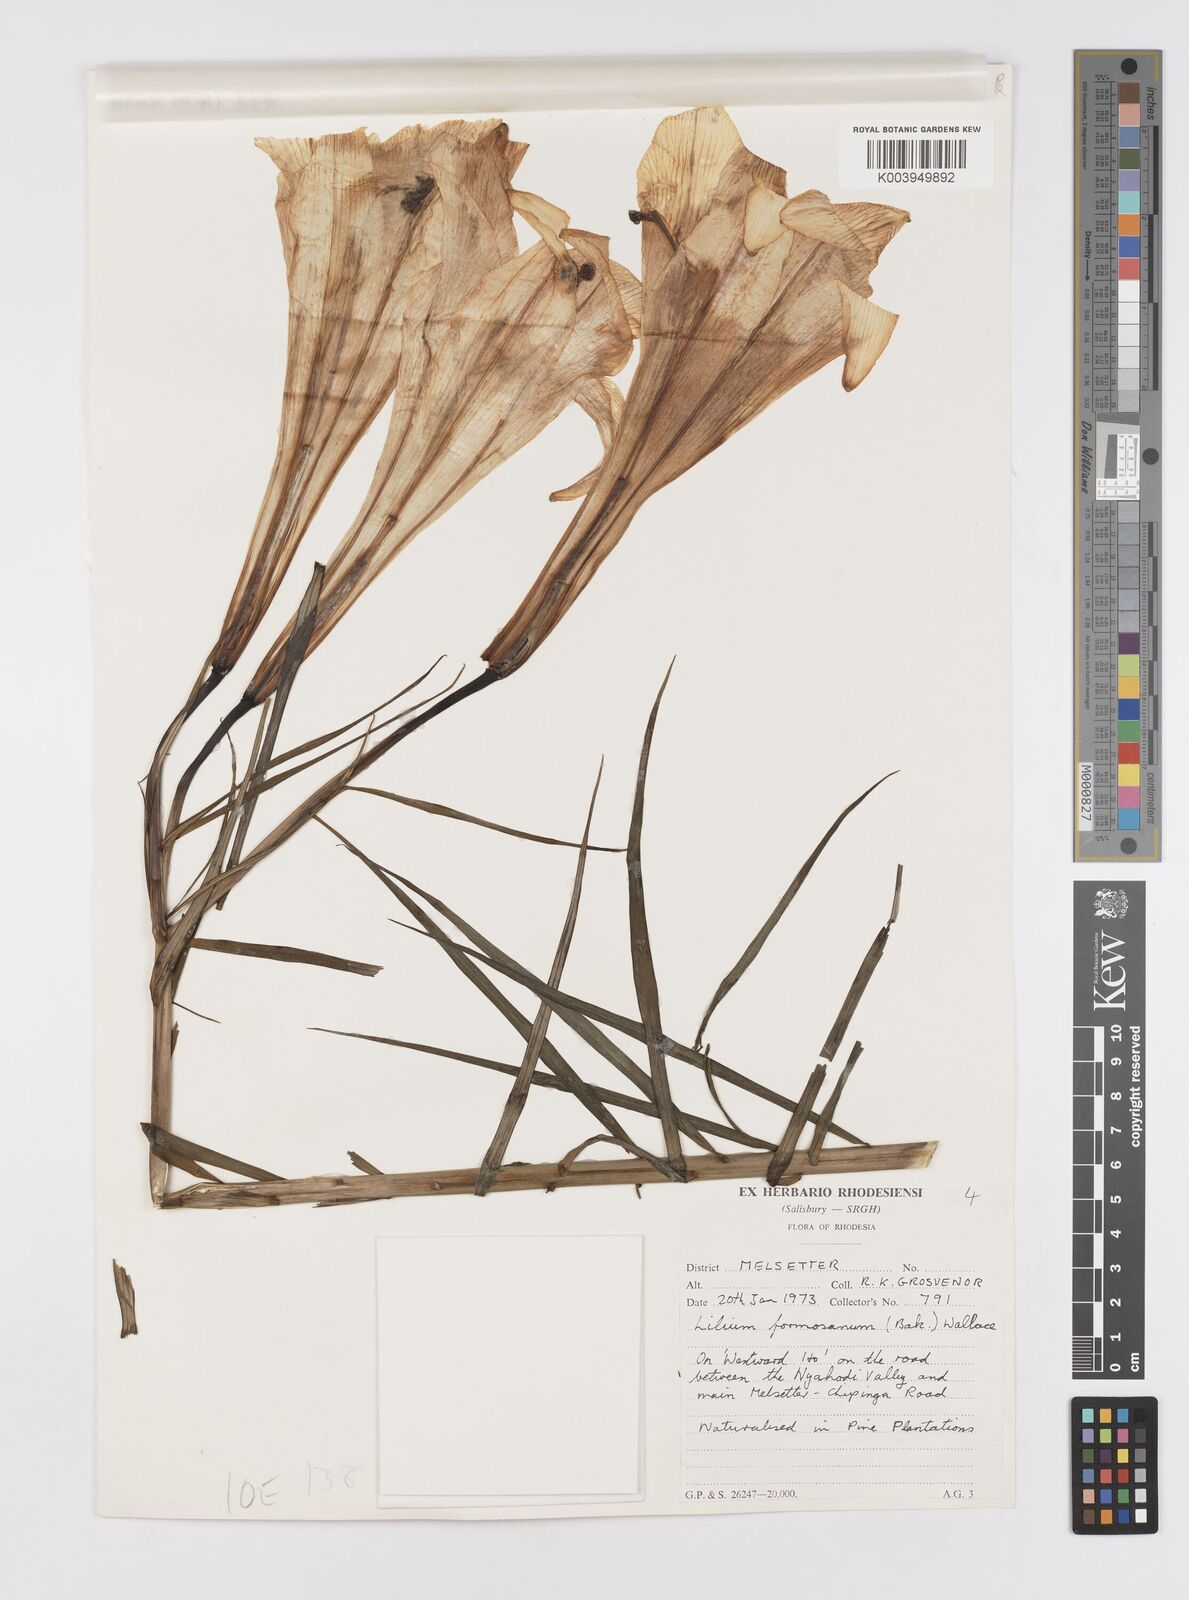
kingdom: Plantae
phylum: Tracheophyta
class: Liliopsida
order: Liliales
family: Liliaceae
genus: Lilium
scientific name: Lilium formosanum
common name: Formosa lily
